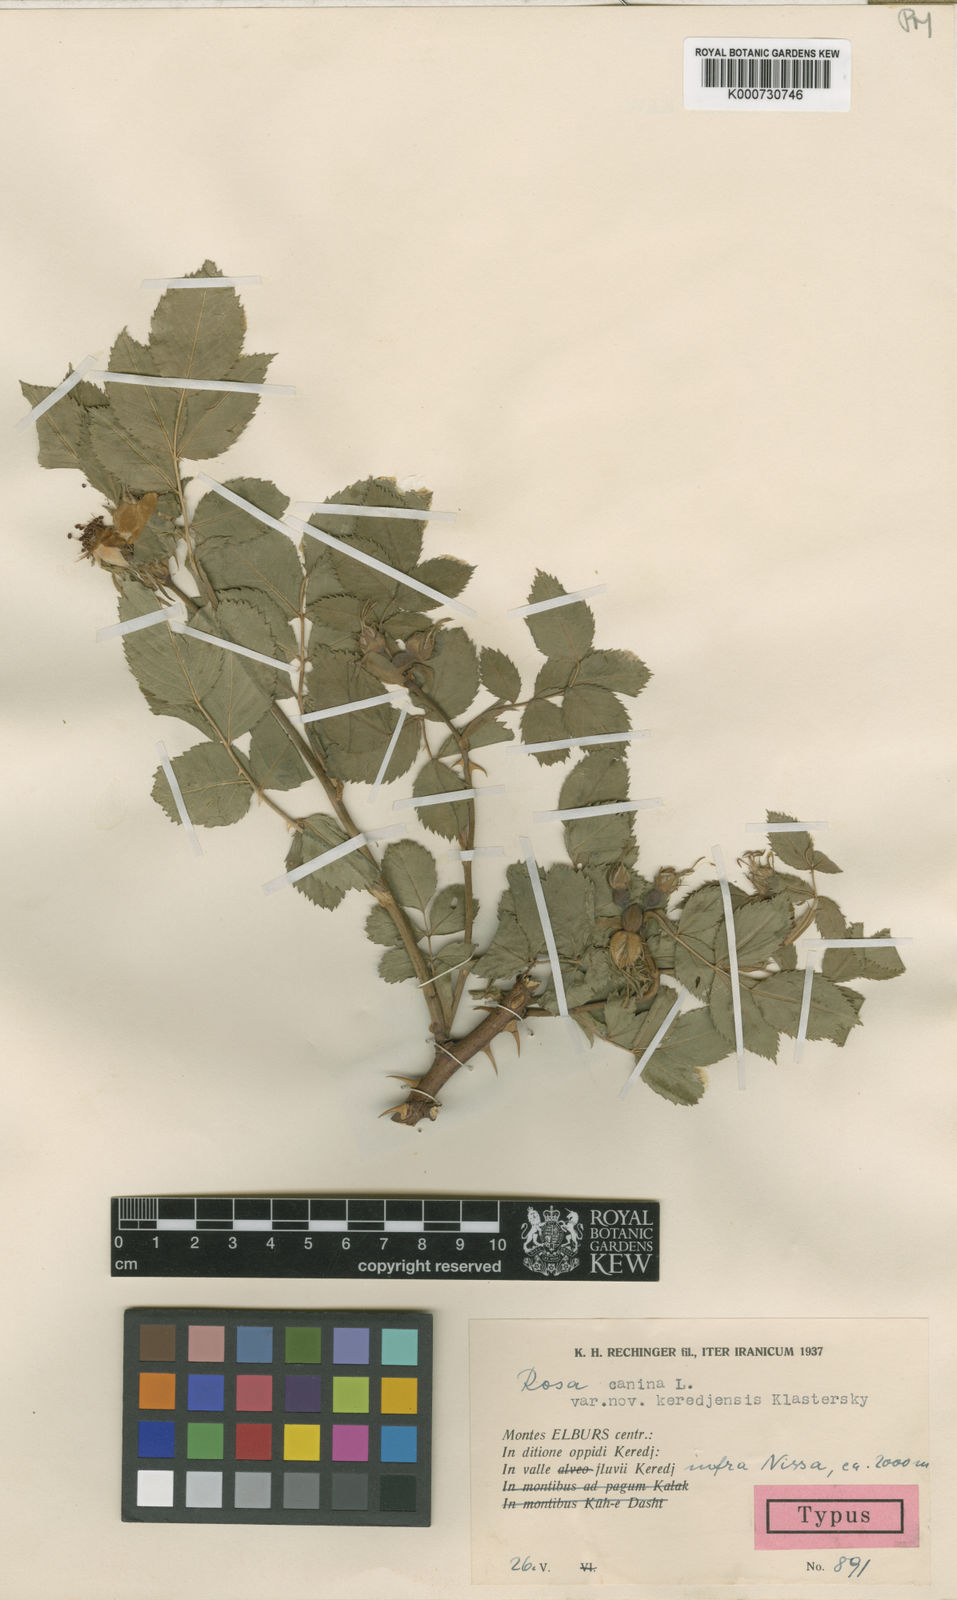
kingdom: Plantae
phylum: Tracheophyta
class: Magnoliopsida
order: Rosales
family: Rosaceae
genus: Rosa
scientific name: Rosa canina
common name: Dog rose
